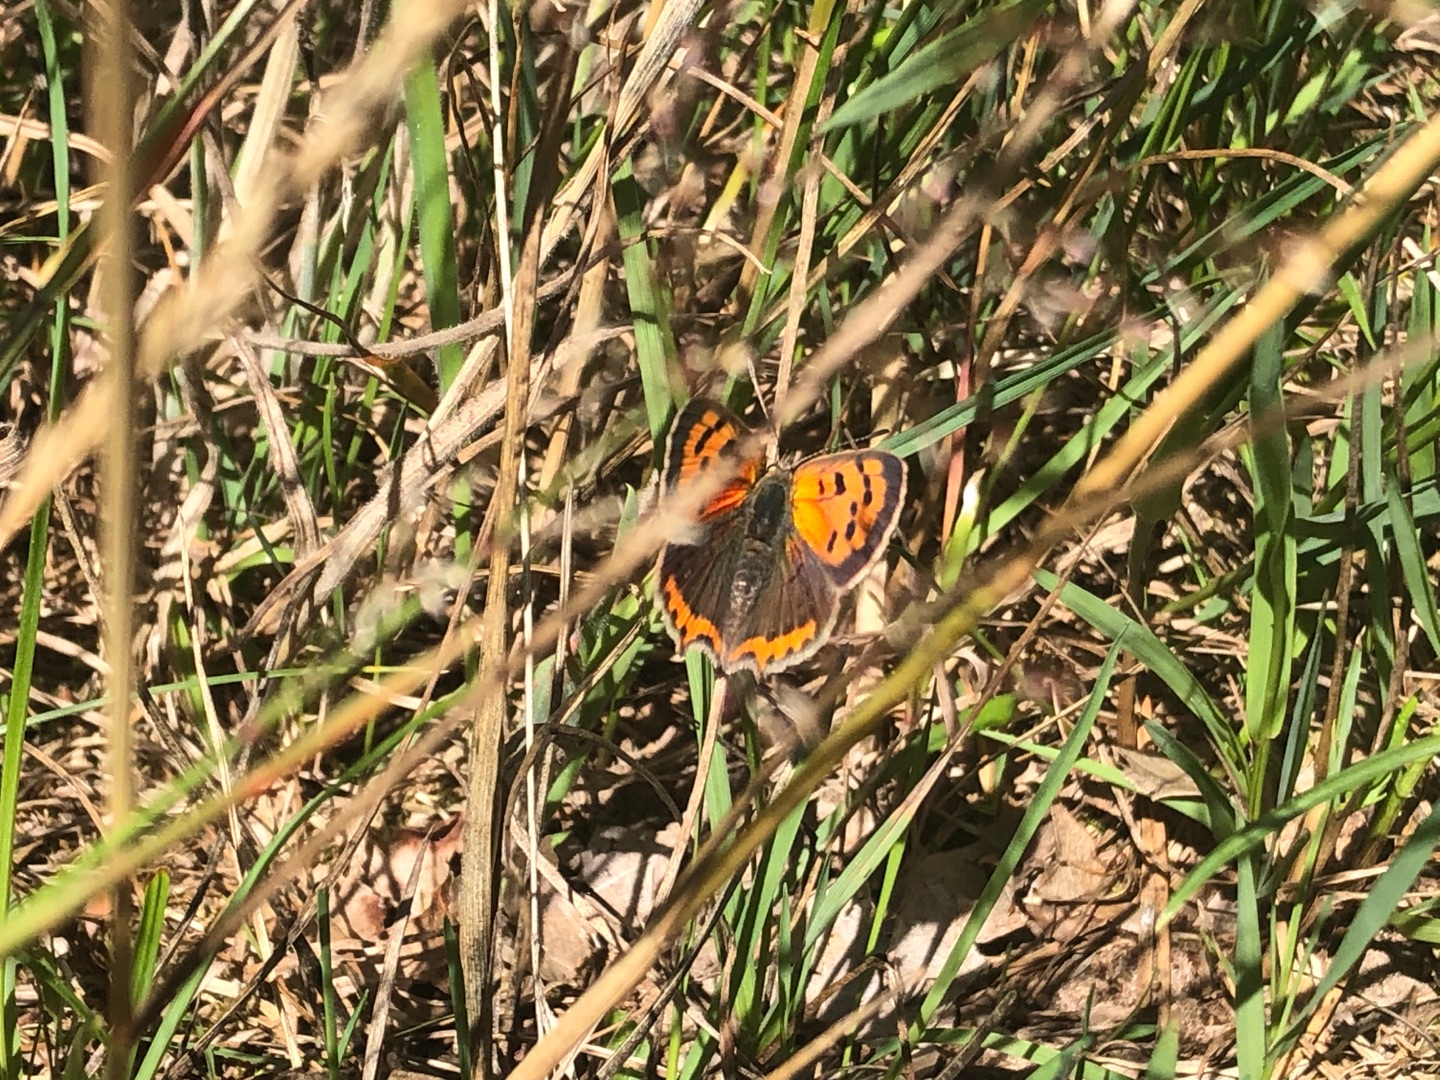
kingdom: Animalia
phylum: Arthropoda
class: Insecta
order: Lepidoptera
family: Lycaenidae
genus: Lycaena
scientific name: Lycaena phlaeas
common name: Lille ildfugl
